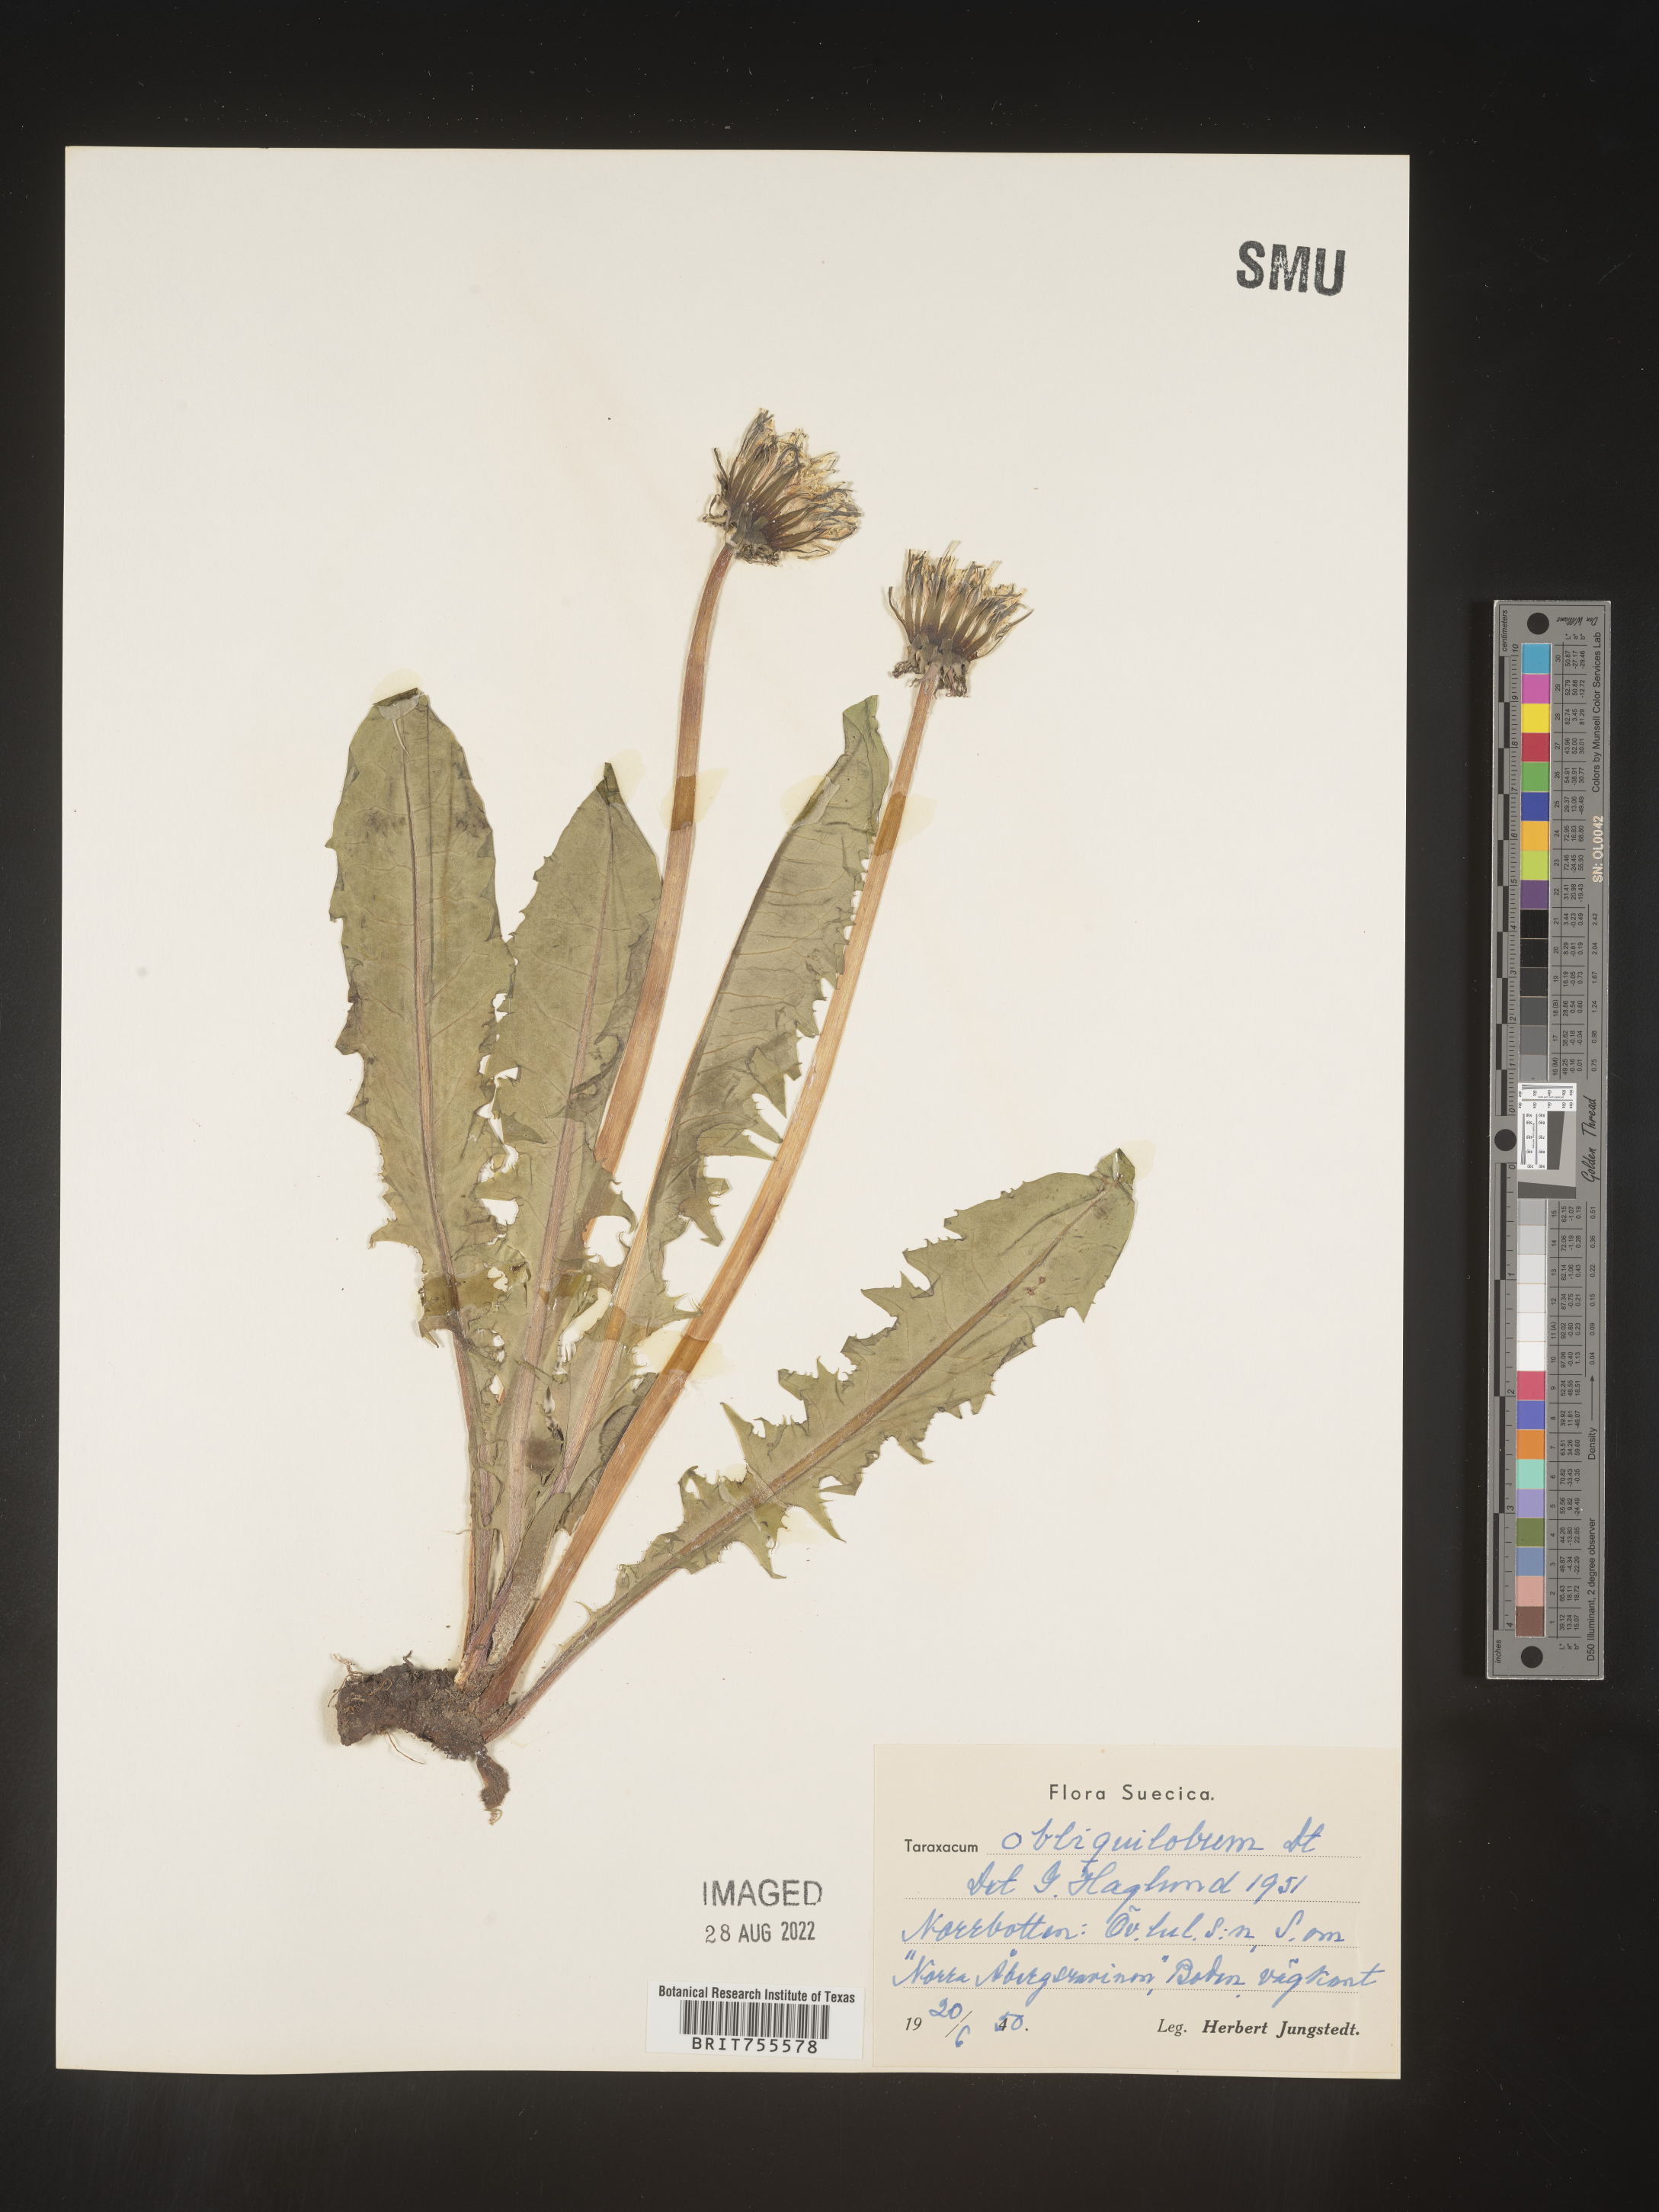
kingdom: Plantae
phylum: Tracheophyta
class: Magnoliopsida
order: Asterales
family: Asteraceae
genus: Taraxacum
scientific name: Taraxacum
